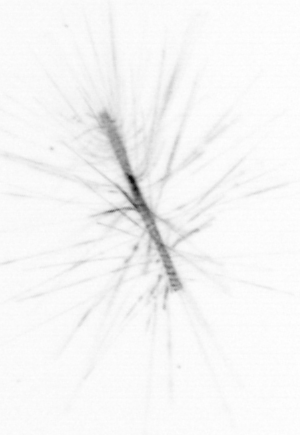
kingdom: Chromista
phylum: Ochrophyta
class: Bacillariophyceae
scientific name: Bacillariophyceae
